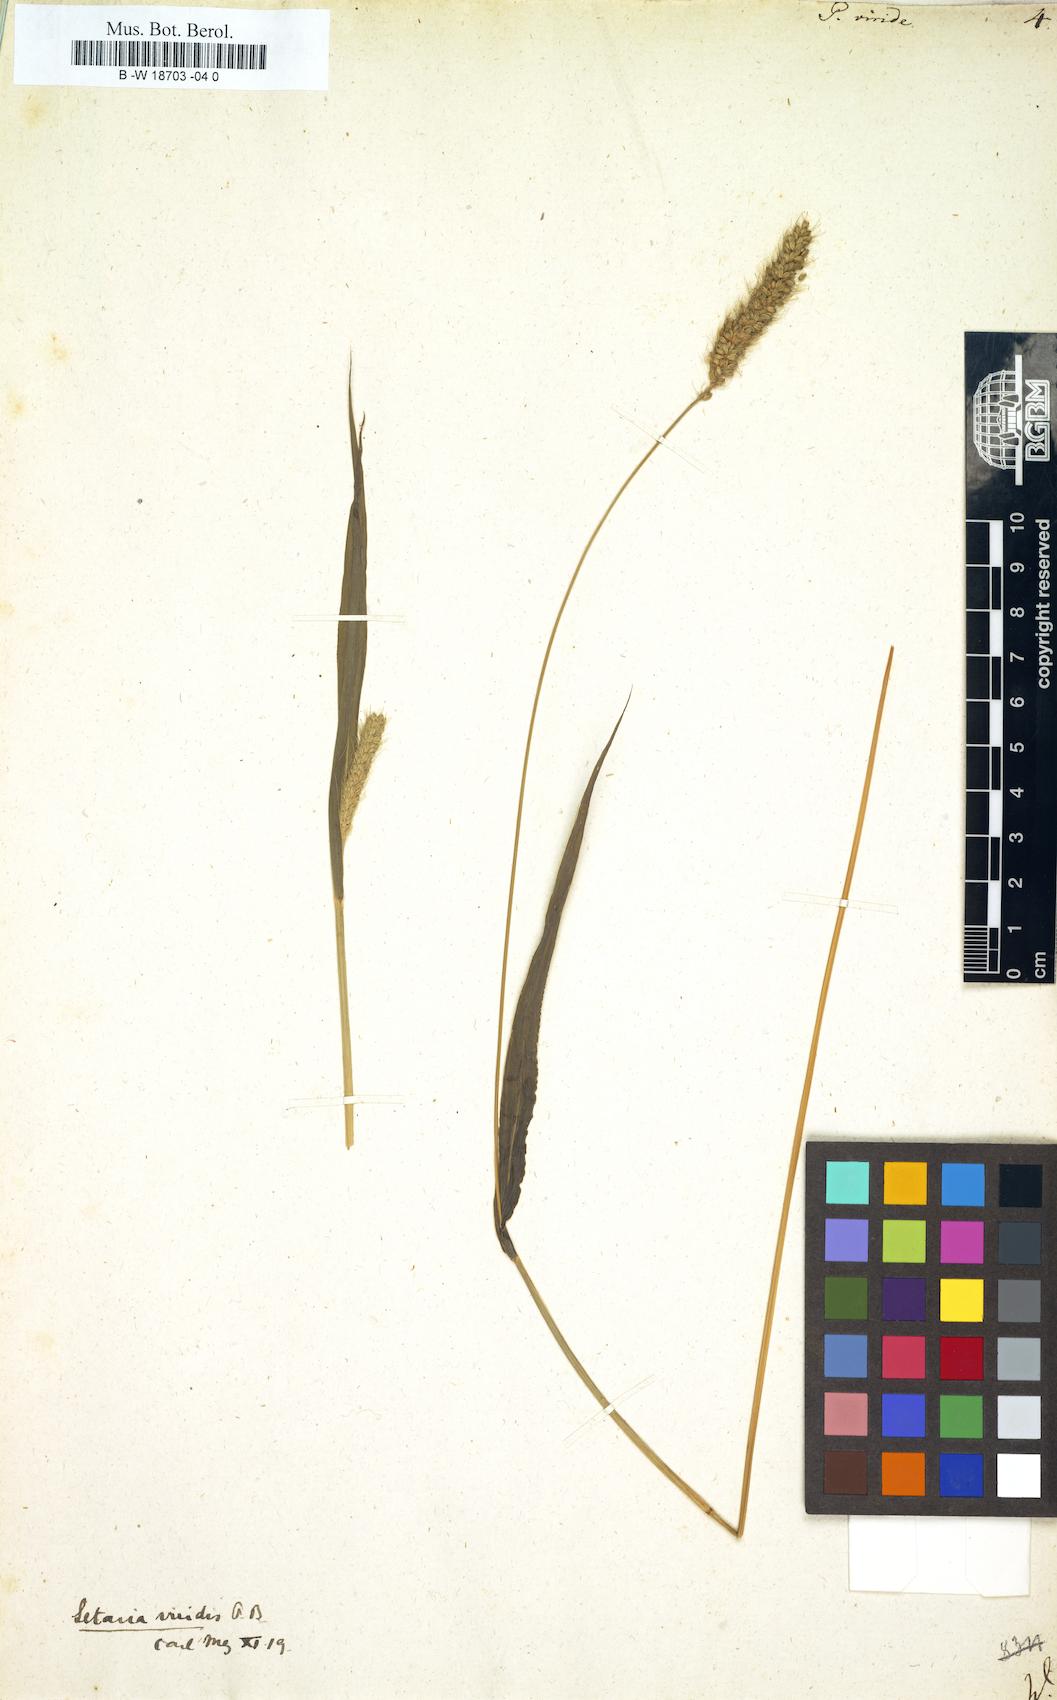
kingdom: Plantae
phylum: Tracheophyta
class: Liliopsida
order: Poales
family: Poaceae
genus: Setaria
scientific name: Setaria viridis
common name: Green bristlegrass
